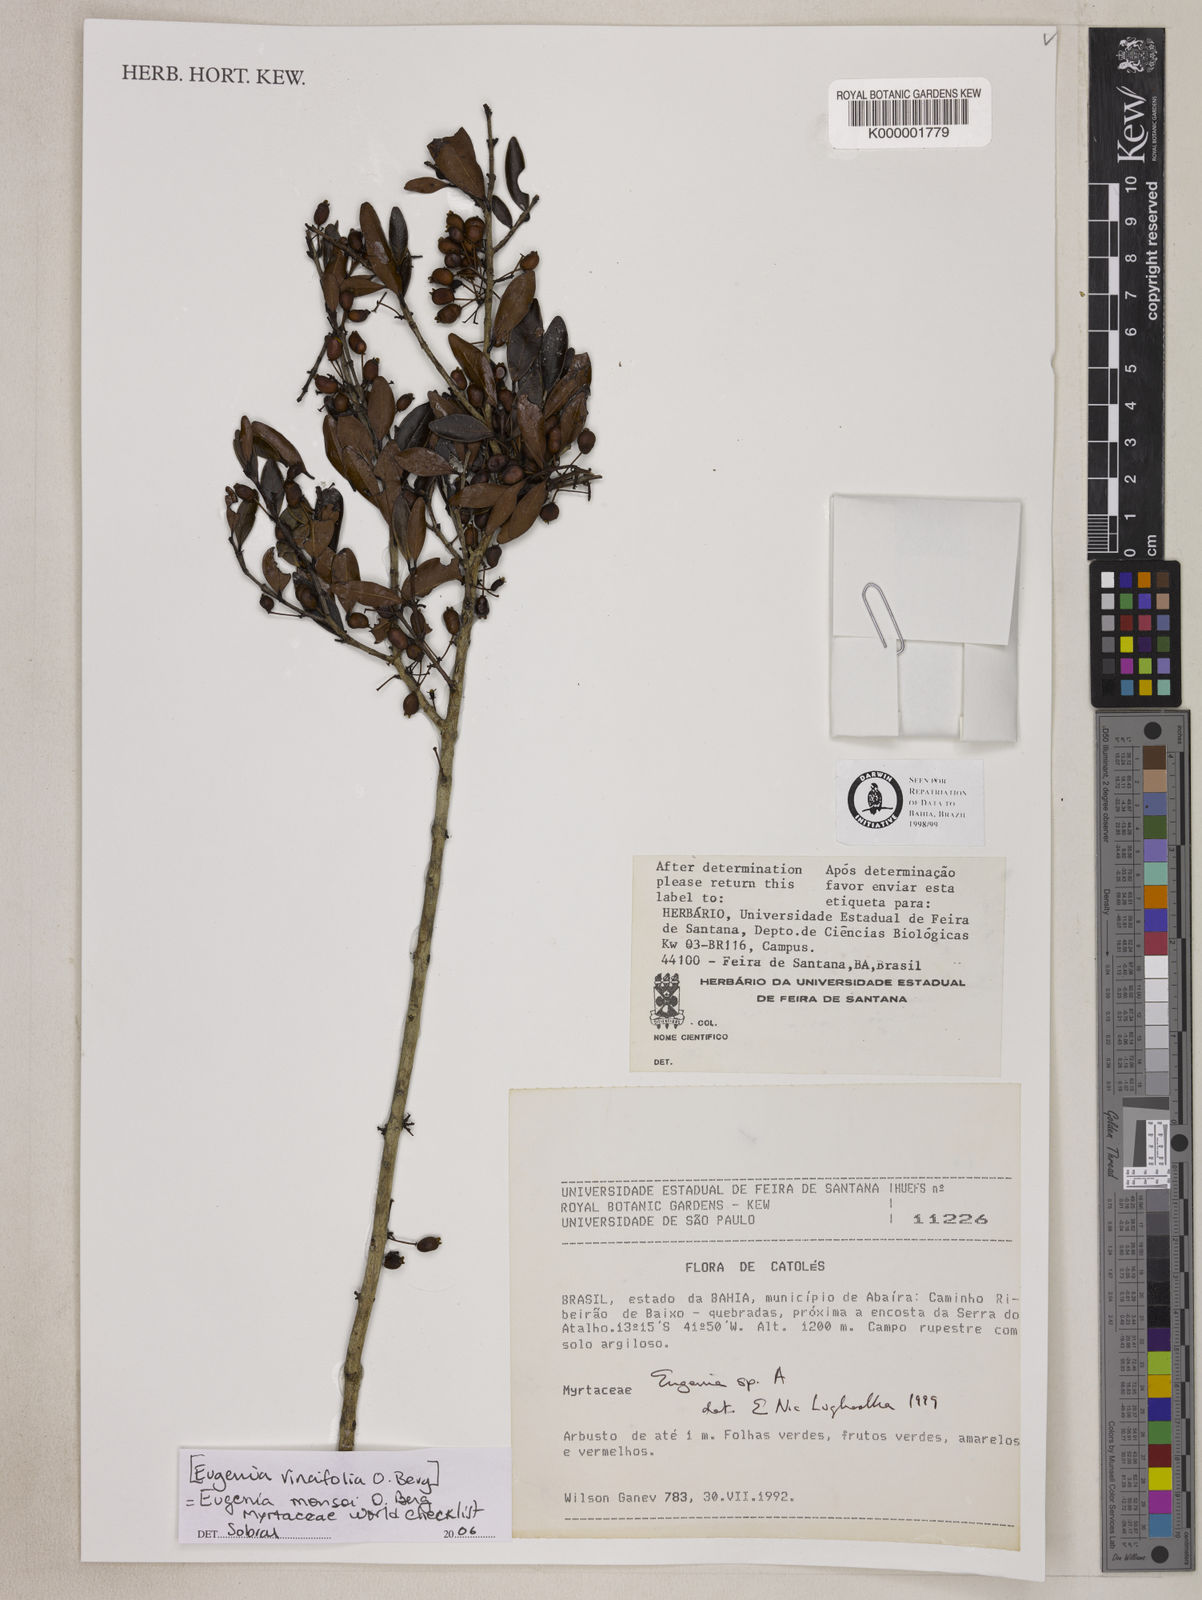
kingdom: Plantae
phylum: Tracheophyta
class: Magnoliopsida
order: Myrtales
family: Myrtaceae
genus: Eugenia
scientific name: Eugenia
